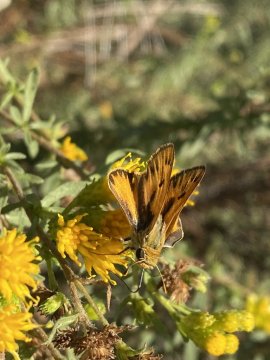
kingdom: Animalia
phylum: Arthropoda
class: Insecta
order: Lepidoptera
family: Hesperiidae
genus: Hylephila
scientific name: Hylephila phyleus
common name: Fiery Skipper
